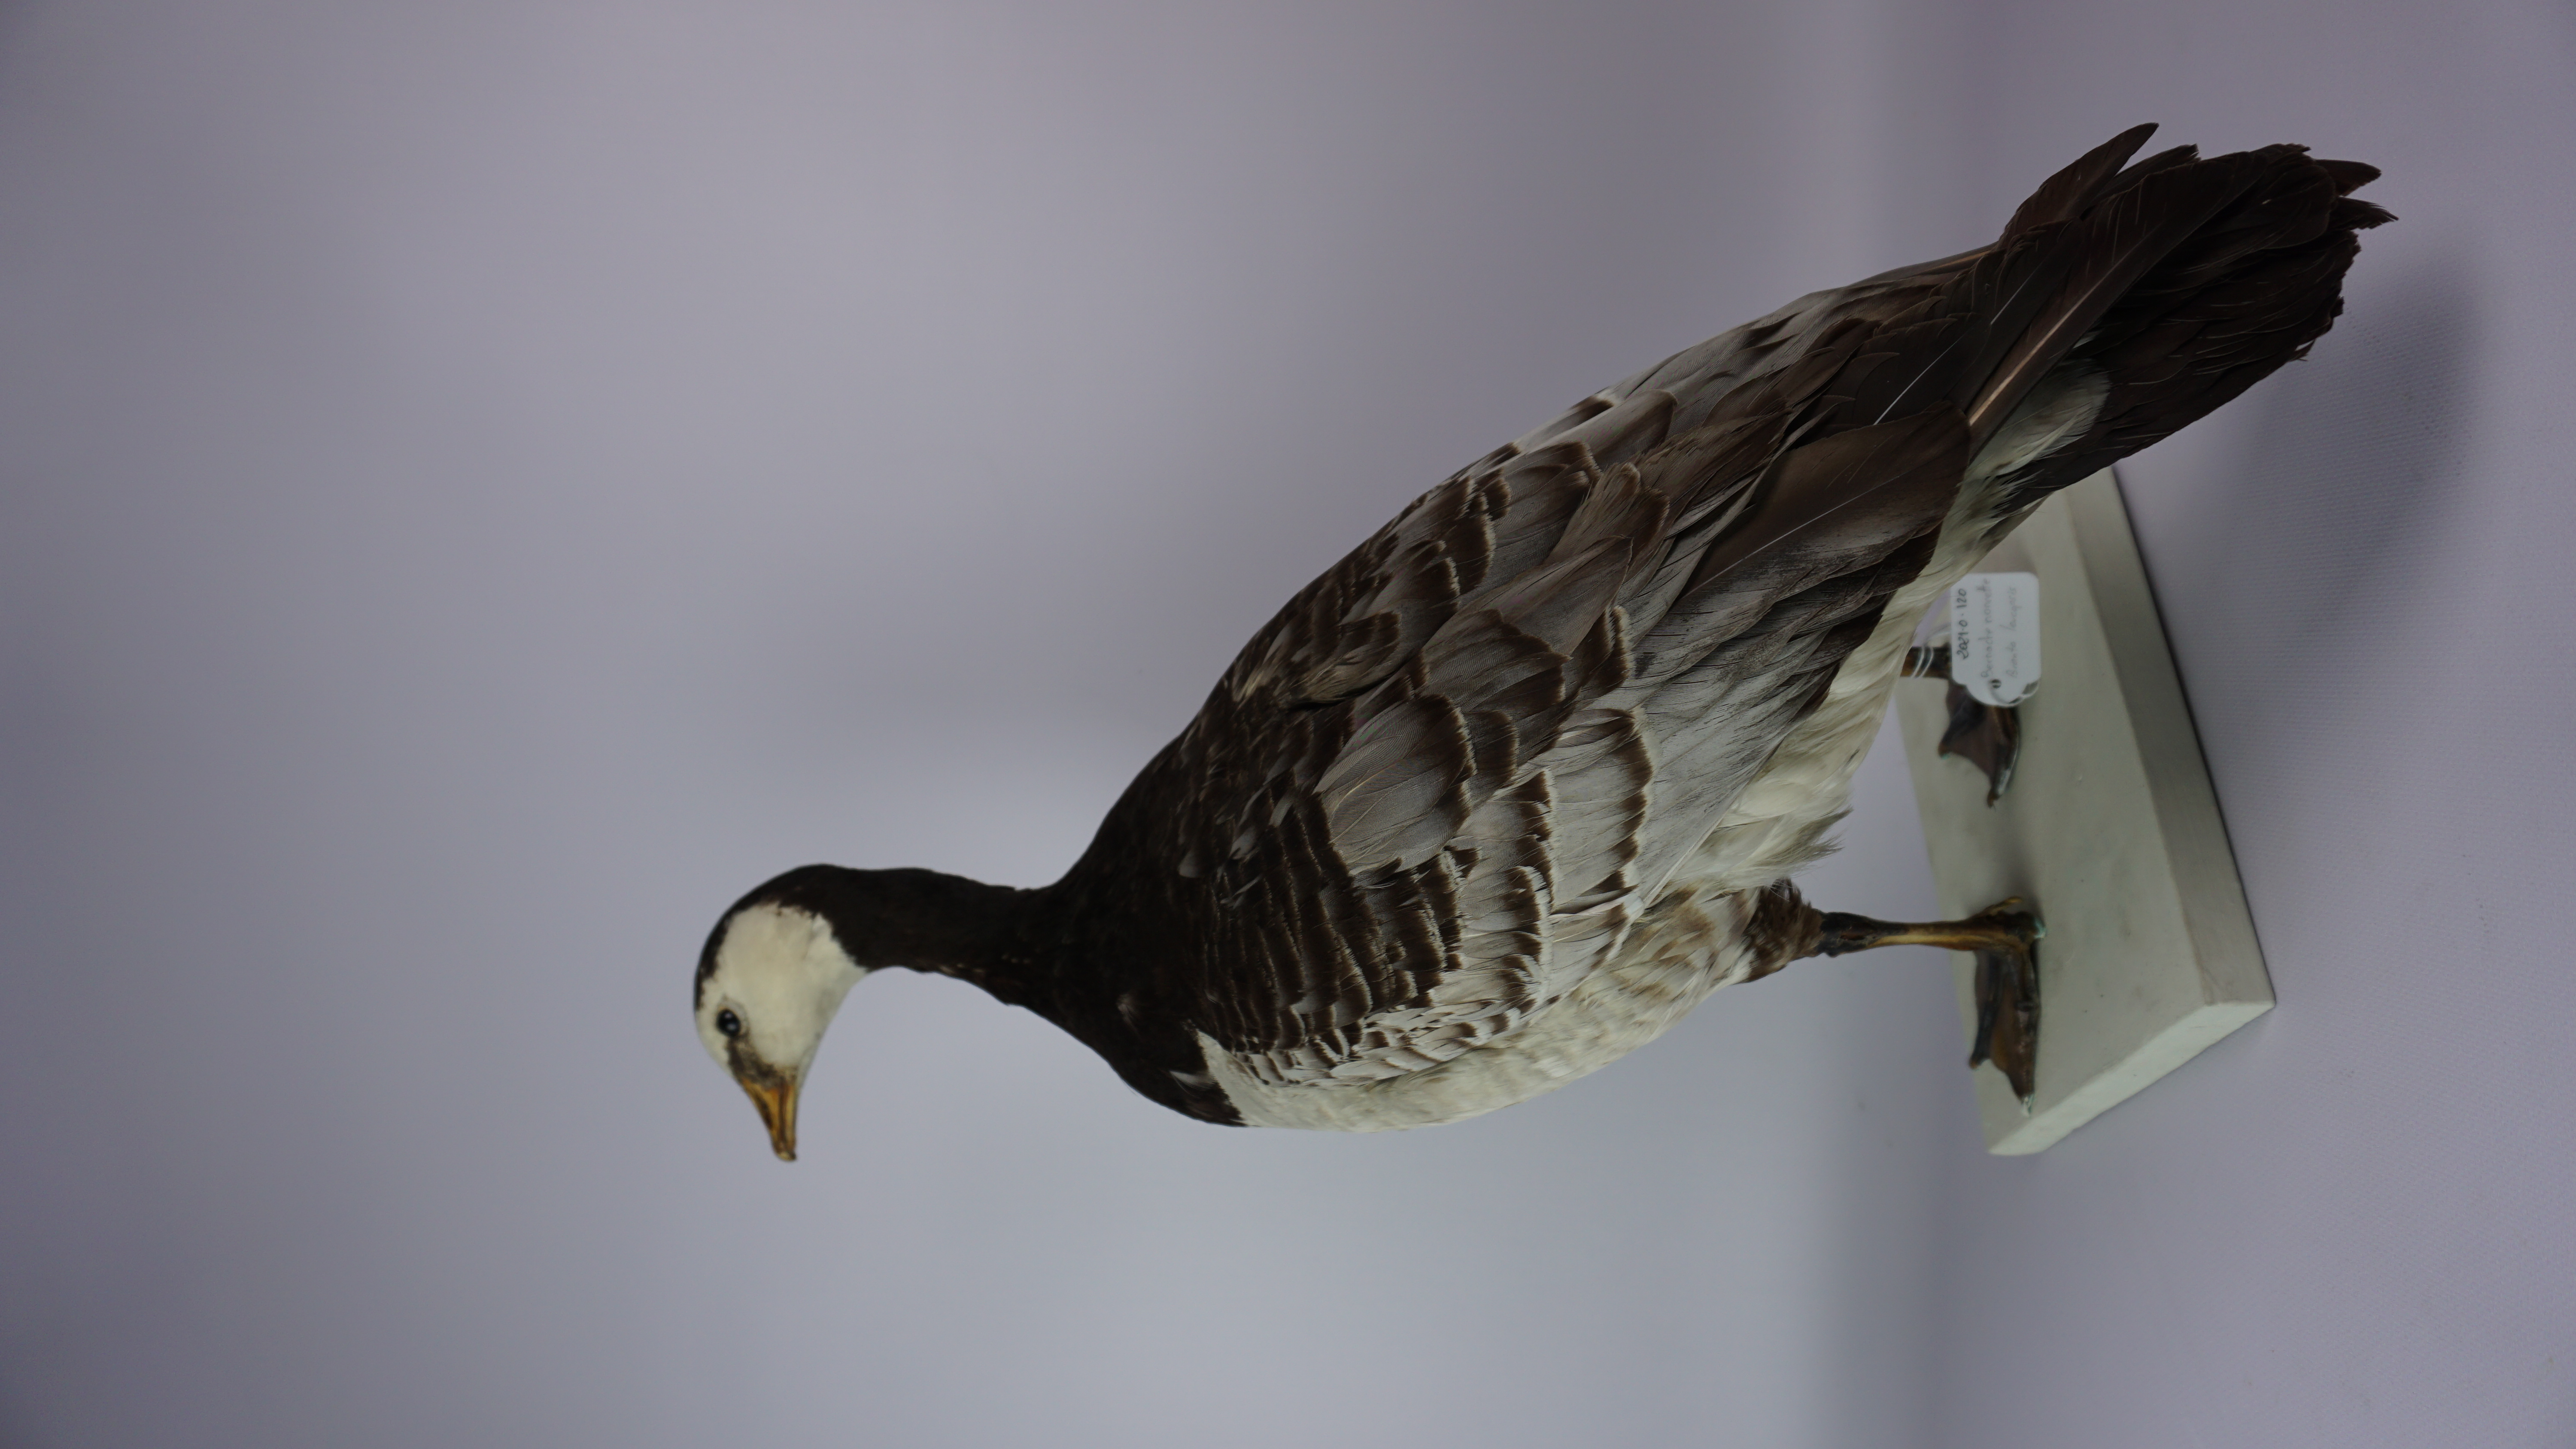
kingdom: Animalia
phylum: Chordata
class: Aves
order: Anseriformes
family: Anatidae
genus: Branta
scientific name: Branta leucopsis
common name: Barnacle goose
